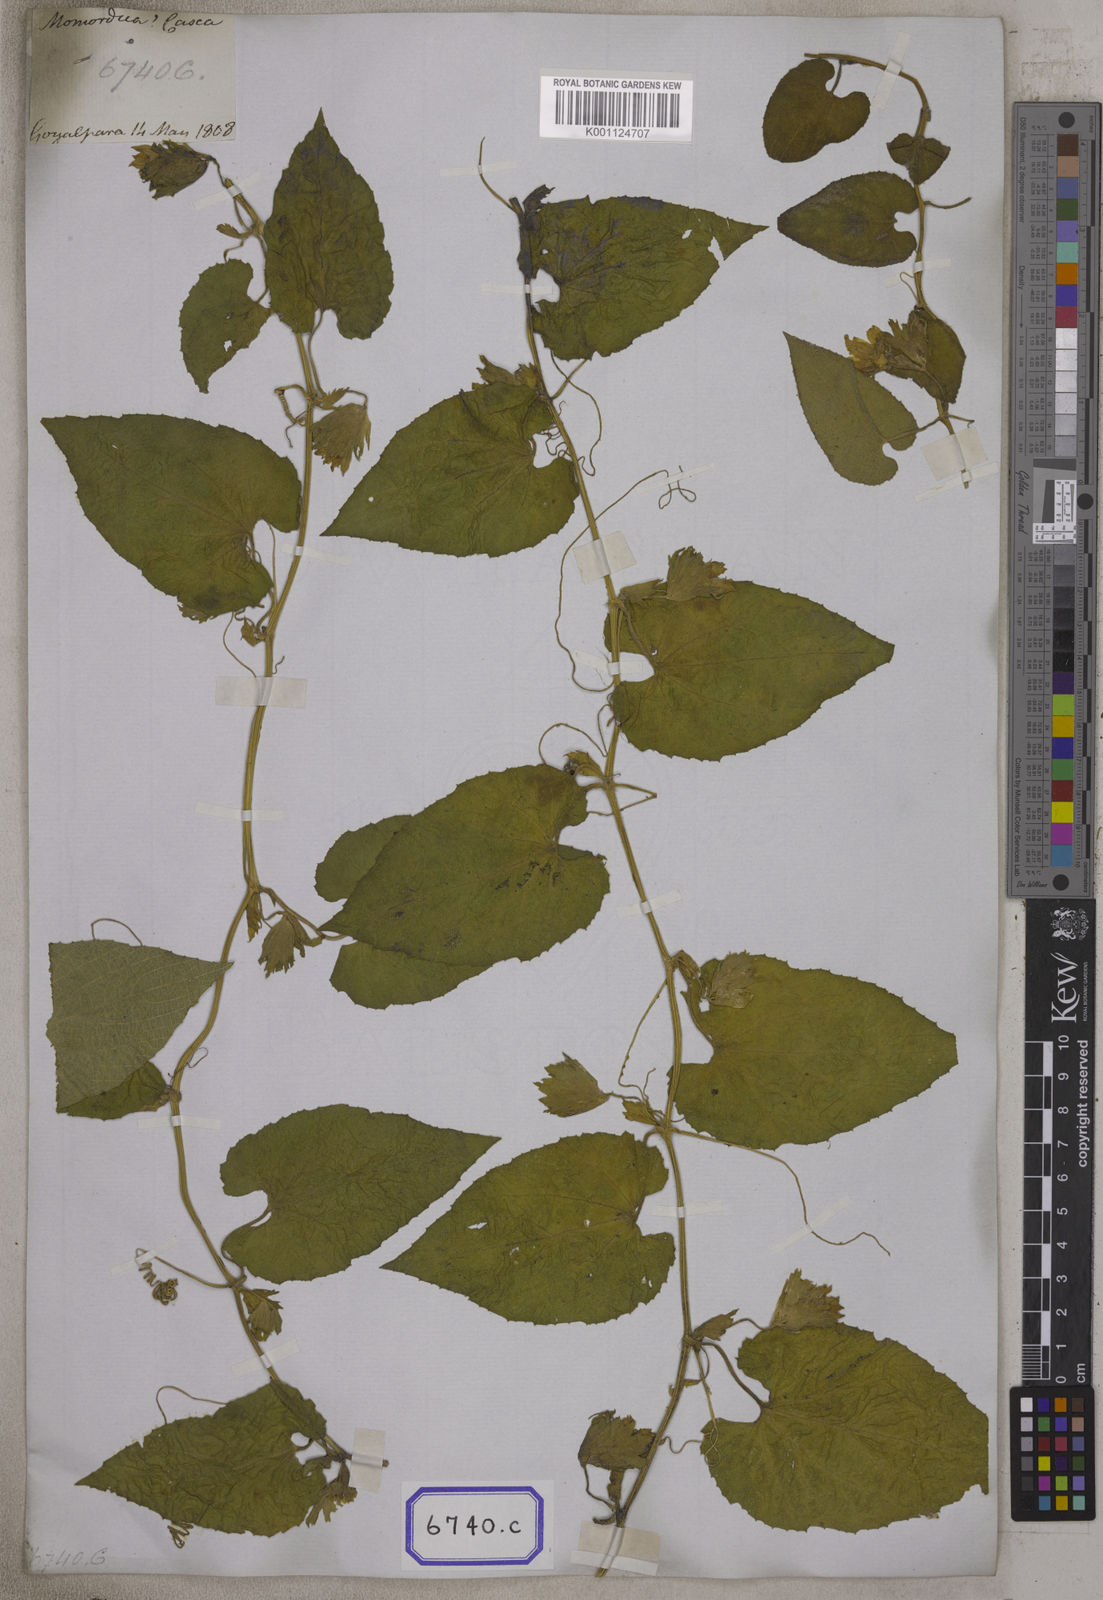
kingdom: Plantae
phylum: Tracheophyta
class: Magnoliopsida
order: Cucurbitales
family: Cucurbitaceae
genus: Thladiantha
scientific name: Thladiantha cordifolia
